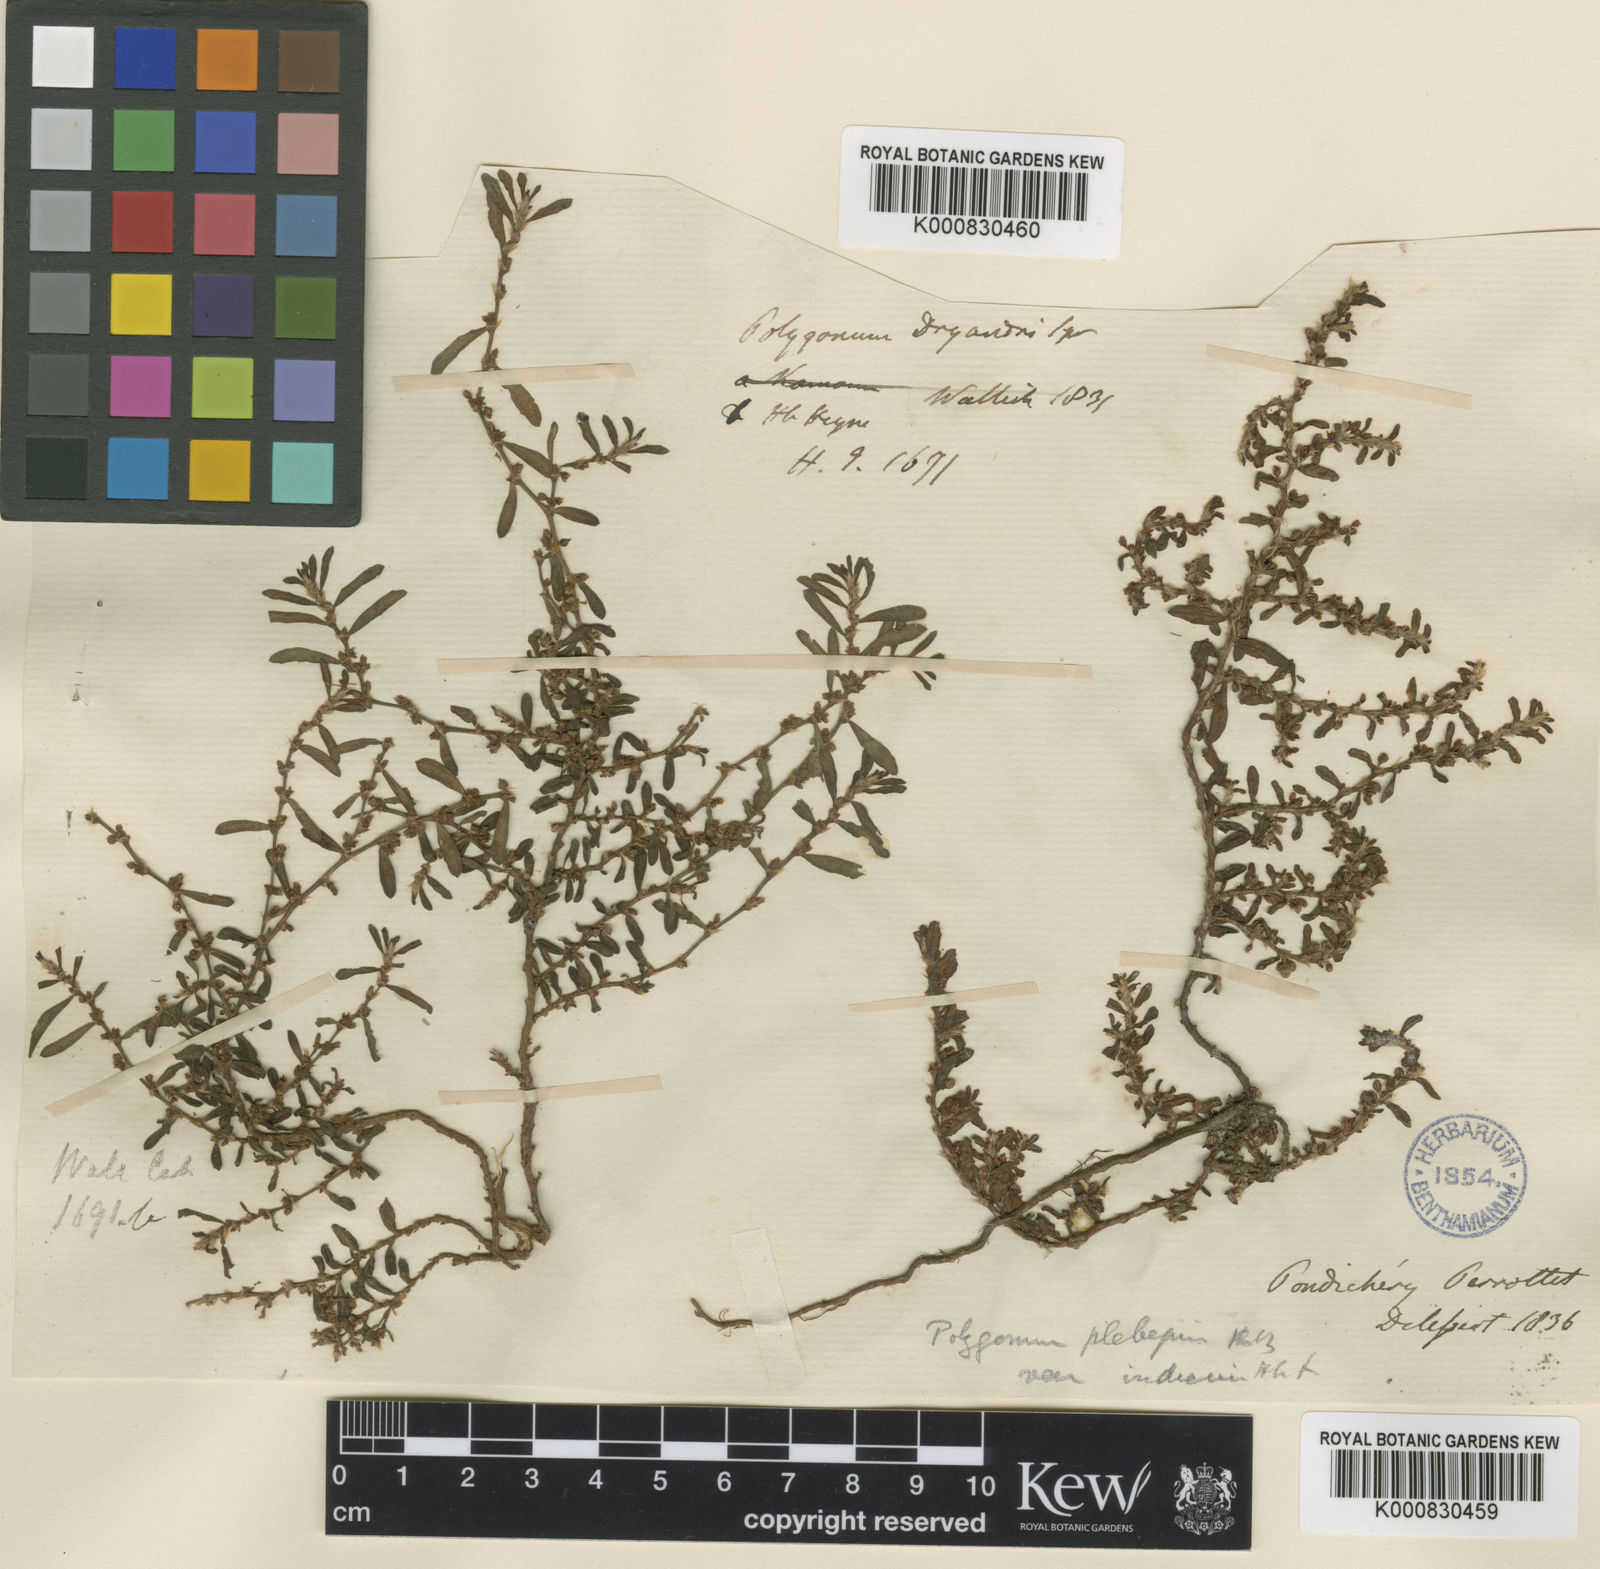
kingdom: Plantae
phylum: Tracheophyta
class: Magnoliopsida
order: Caryophyllales
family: Polygonaceae
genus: Polygonum
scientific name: Polygonum plebeium
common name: Common knotweed
